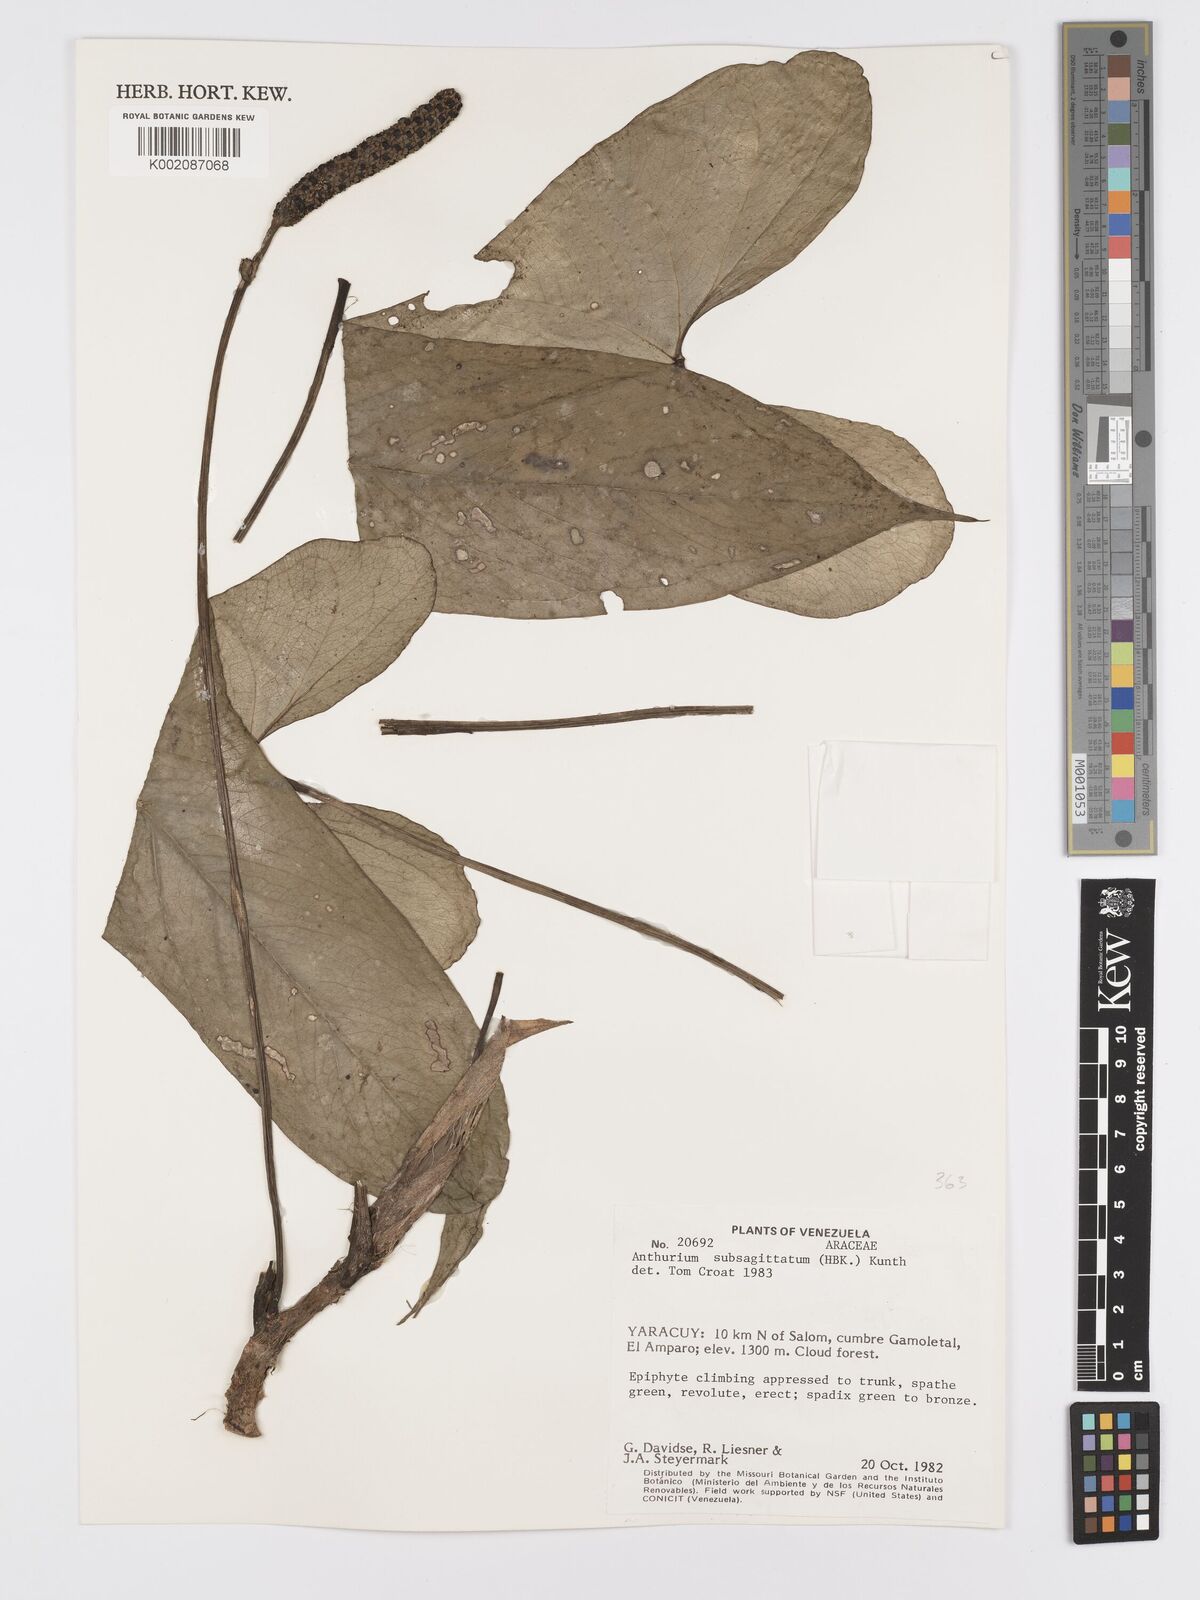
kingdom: Plantae
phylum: Tracheophyta
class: Liliopsida
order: Alismatales
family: Araceae
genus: Anthurium
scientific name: Anthurium subsagittatum
